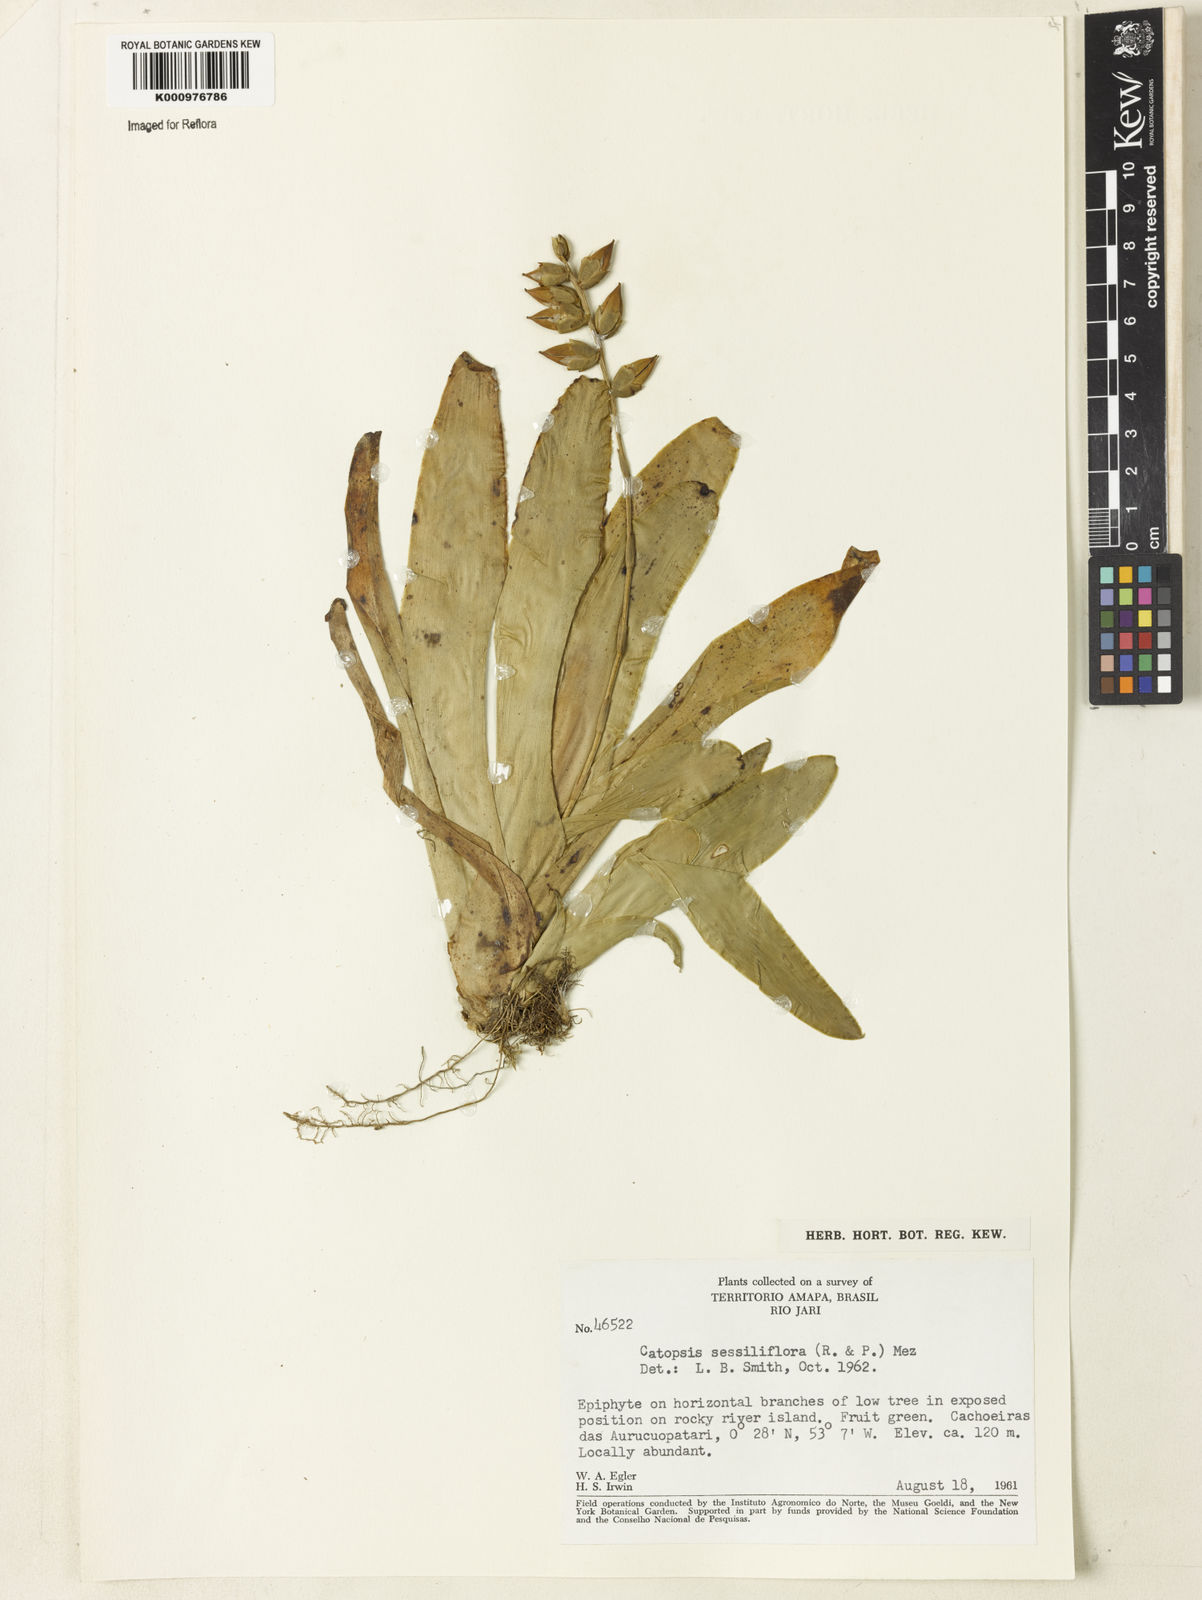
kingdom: Plantae
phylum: Tracheophyta
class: Liliopsida
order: Poales
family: Bromeliaceae
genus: Catopsis
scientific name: Catopsis
